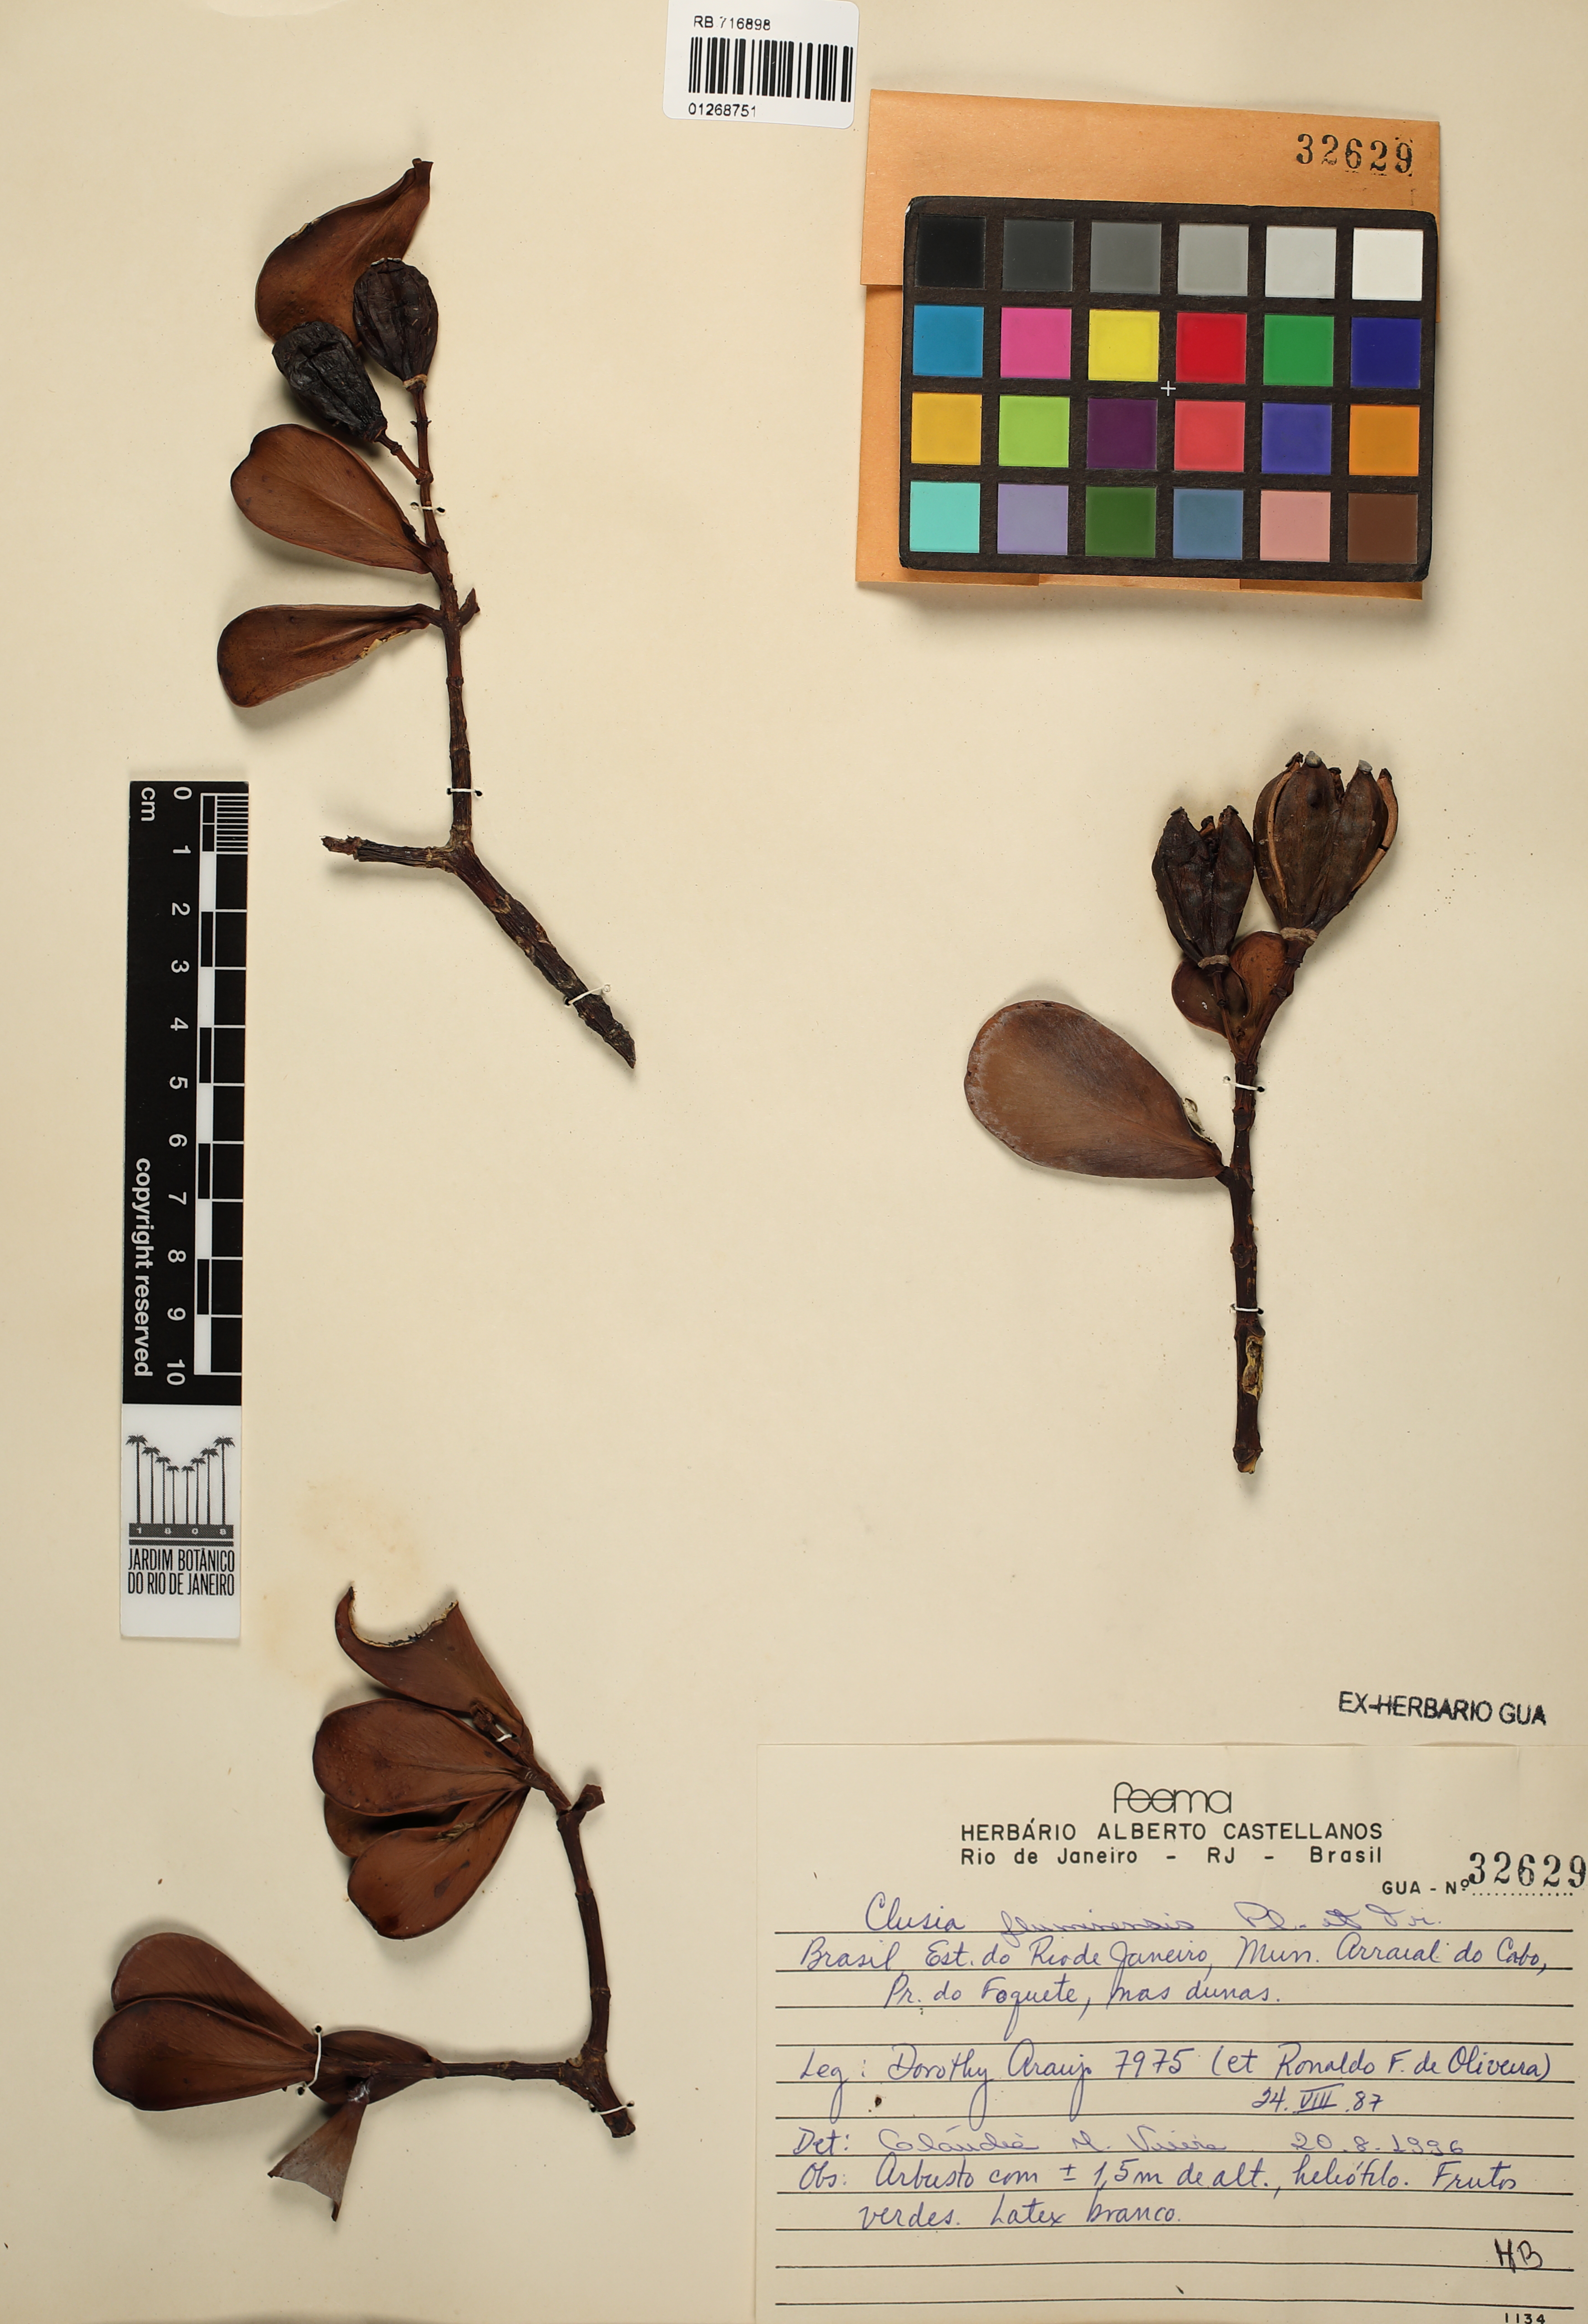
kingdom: Plantae
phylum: Tracheophyta
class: Magnoliopsida
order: Malpighiales
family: Clusiaceae
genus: Clusia
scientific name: Clusia fluminensis
